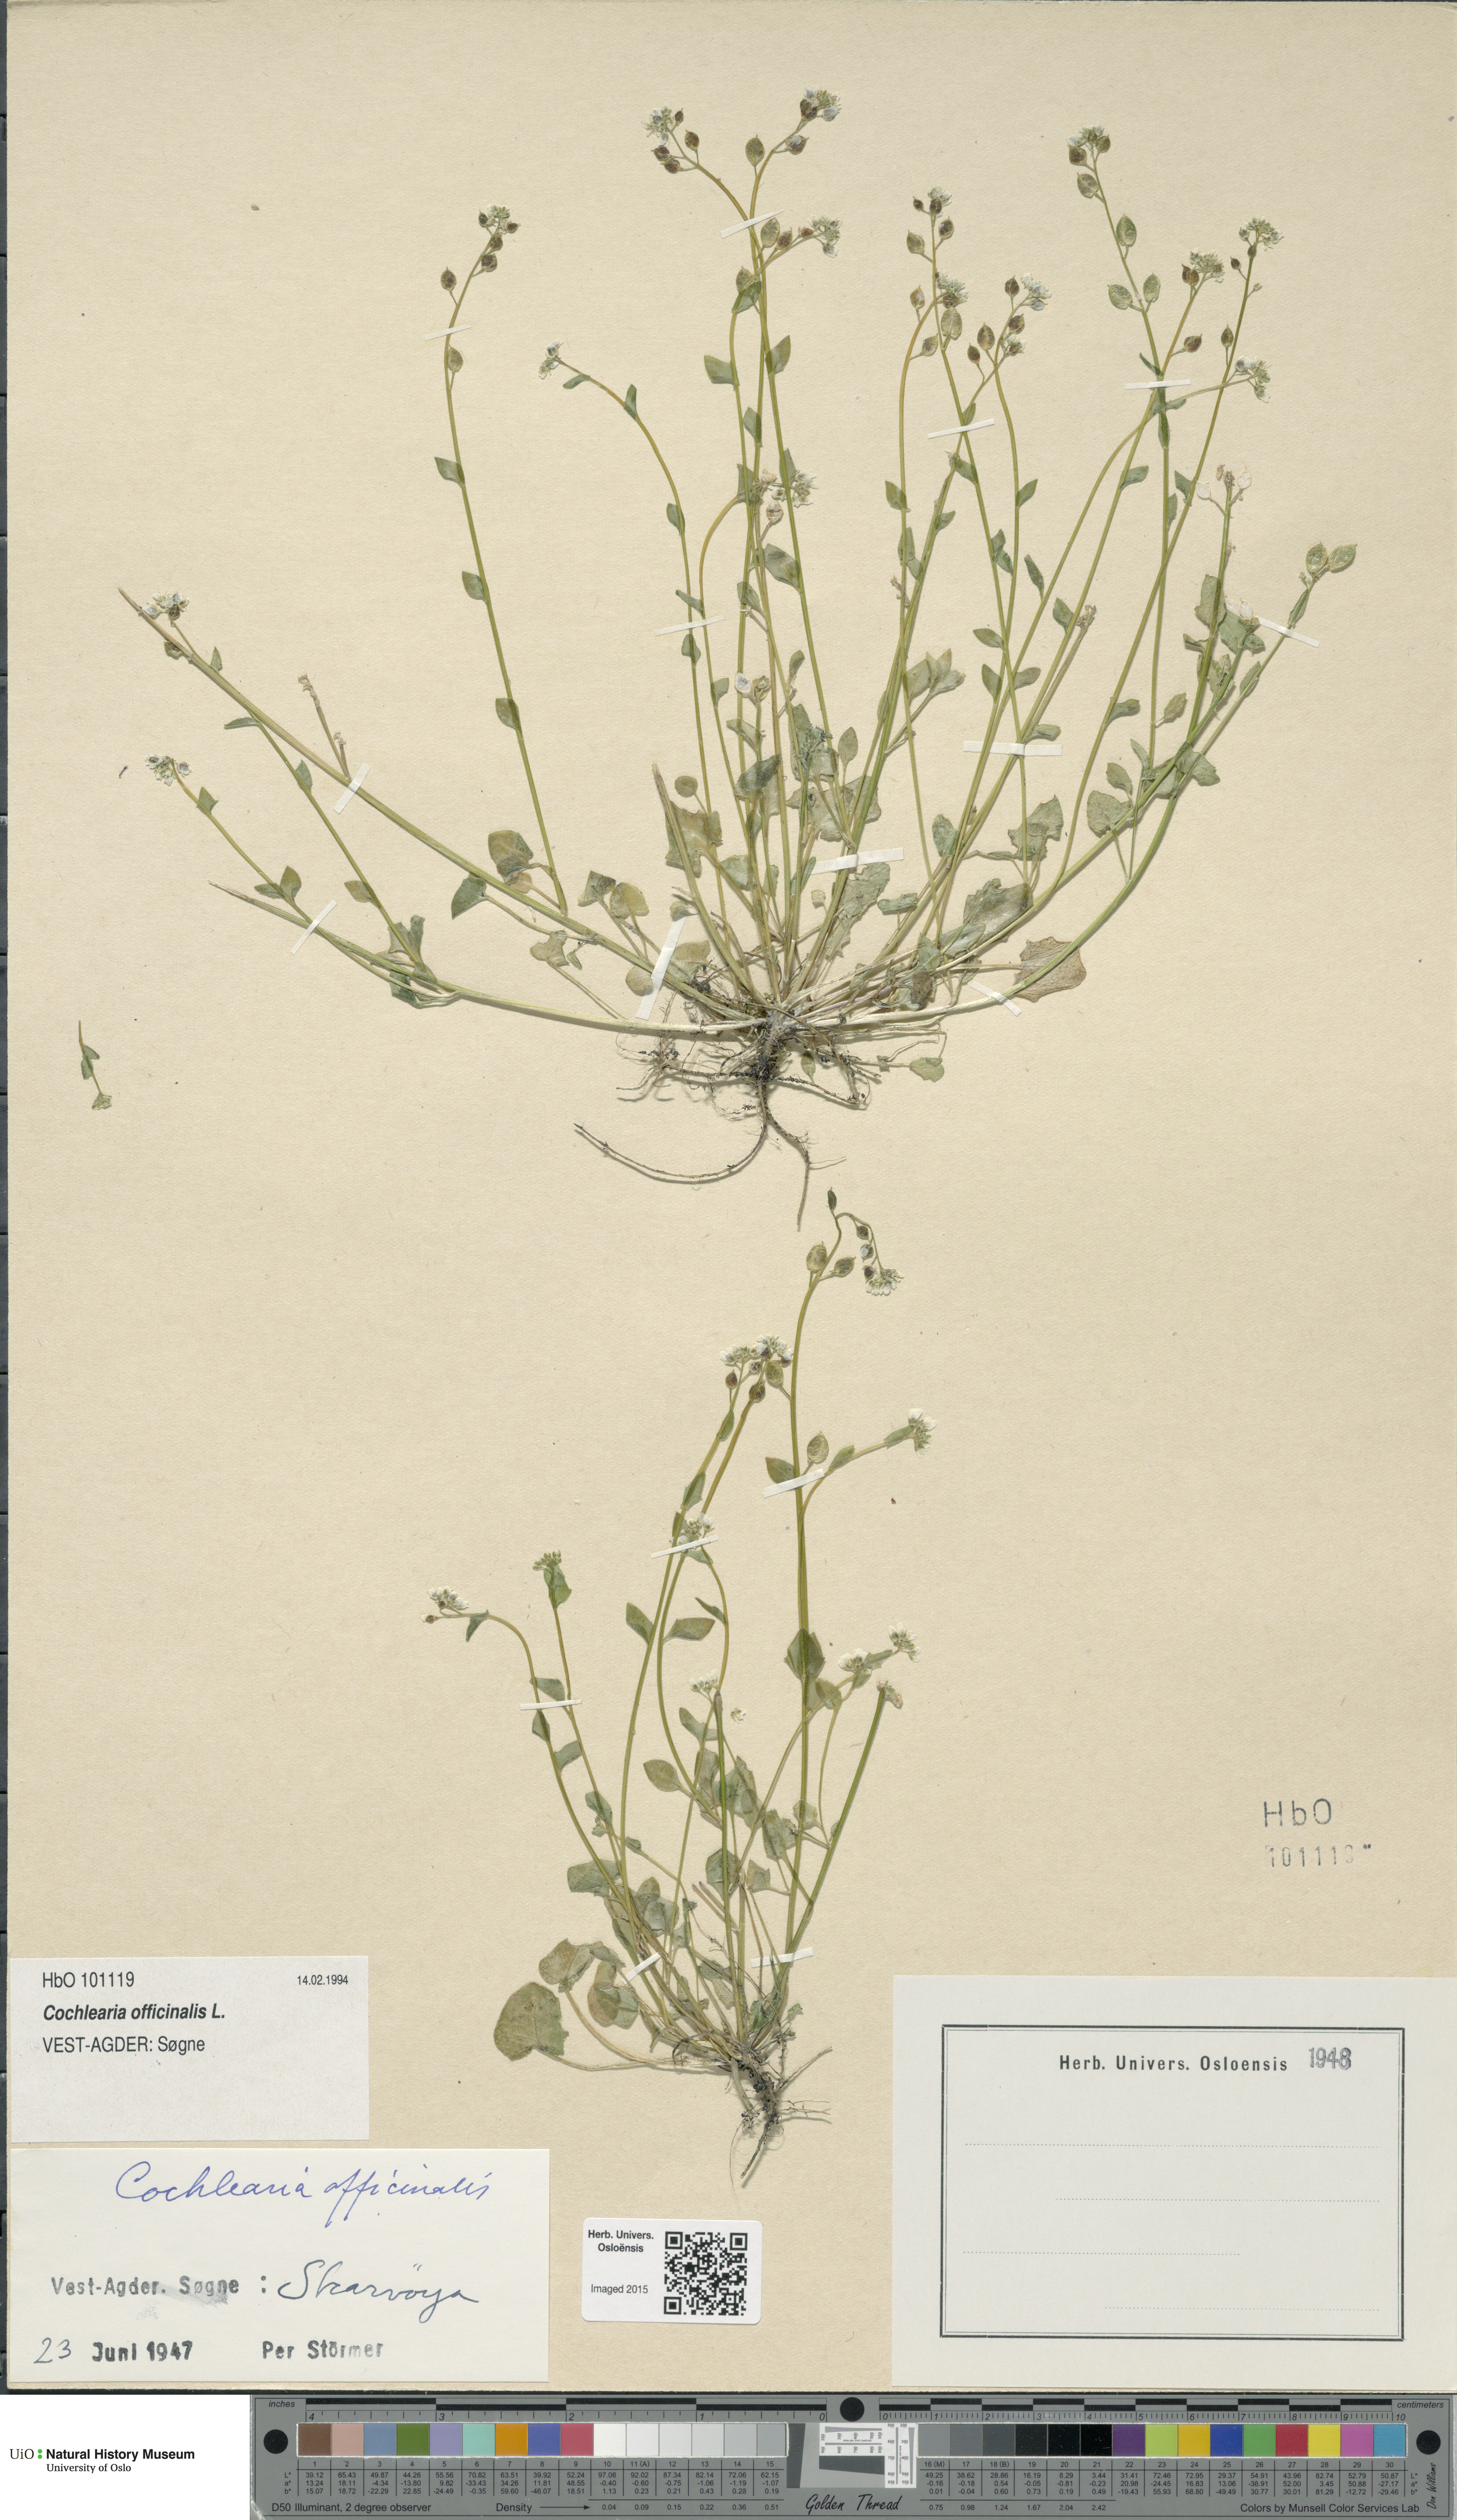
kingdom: Plantae
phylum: Tracheophyta
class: Magnoliopsida
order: Brassicales
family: Brassicaceae
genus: Cochlearia
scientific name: Cochlearia officinalis
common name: Scurvy-grass
